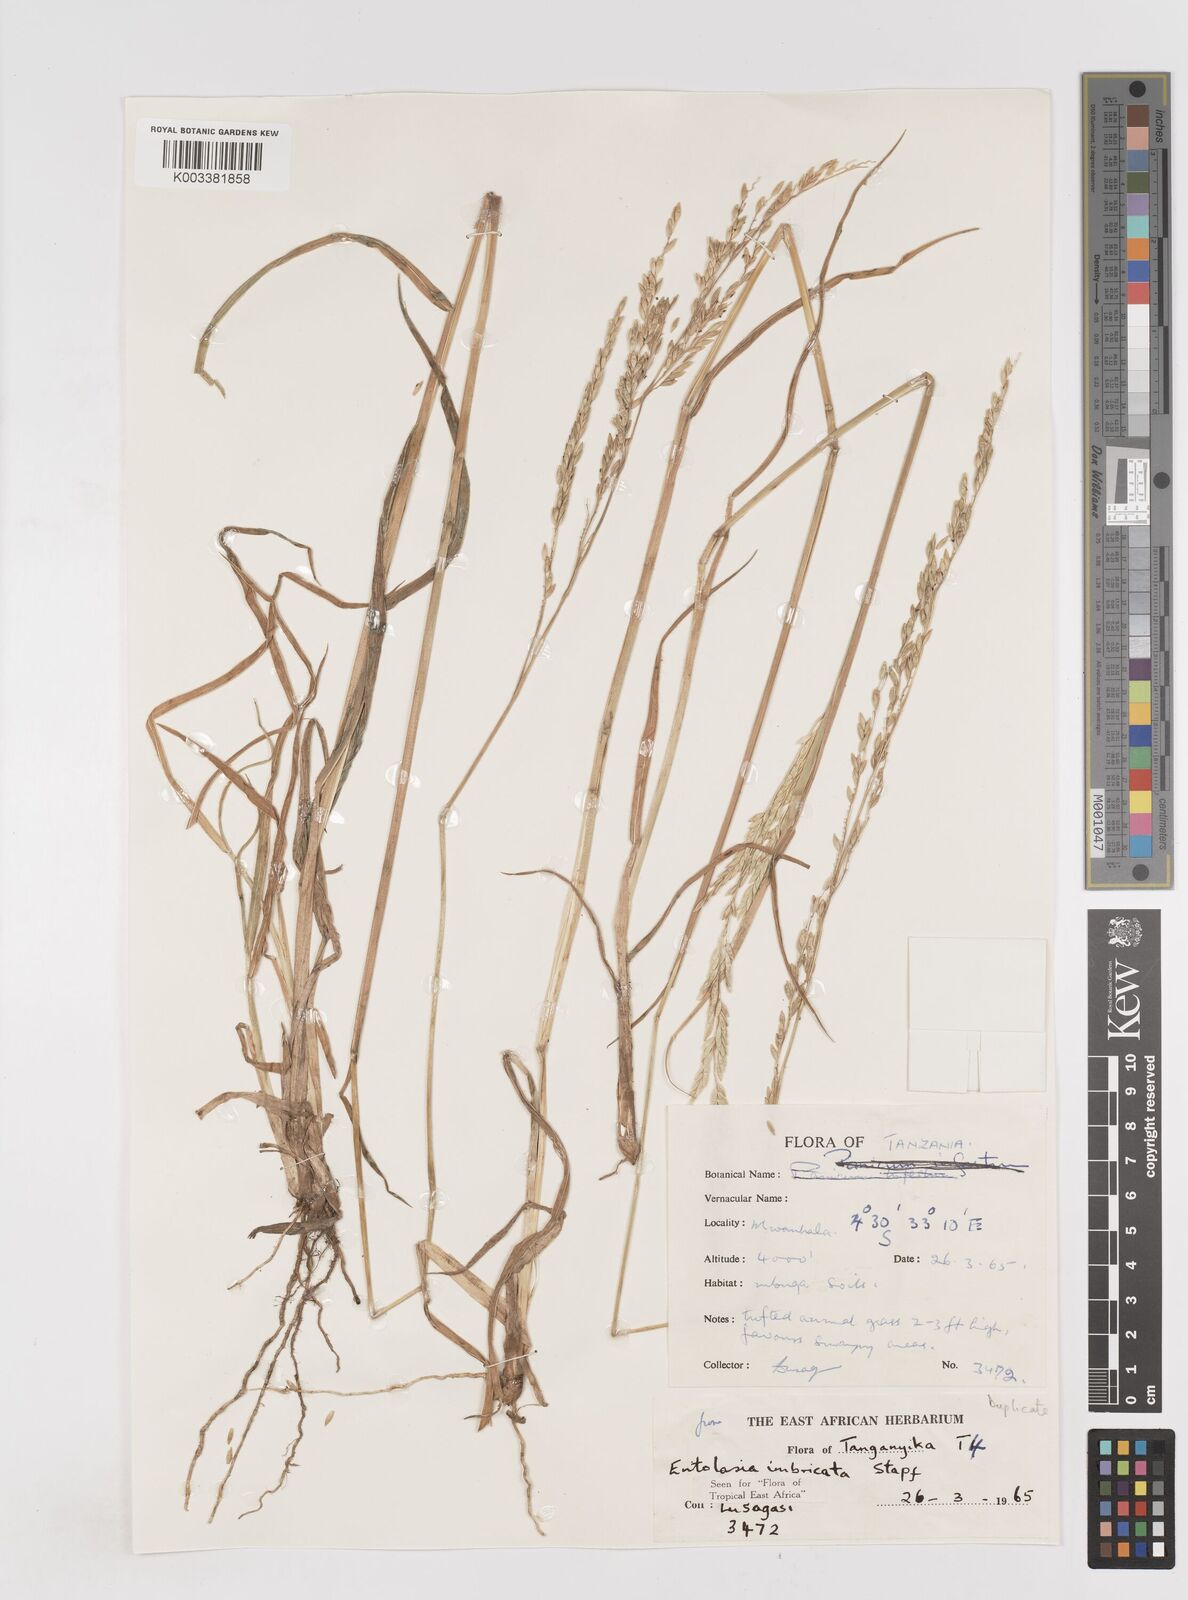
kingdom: Plantae
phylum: Tracheophyta
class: Liliopsida
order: Poales
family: Poaceae
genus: Entolasia
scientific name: Entolasia imbricata
